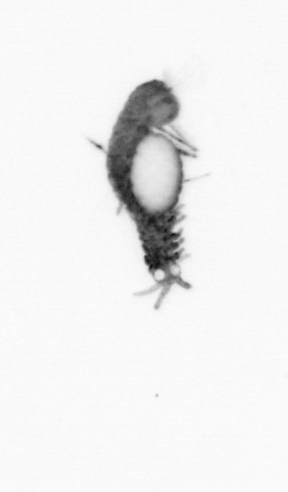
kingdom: Animalia
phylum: Annelida
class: Polychaeta
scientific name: Polychaeta
